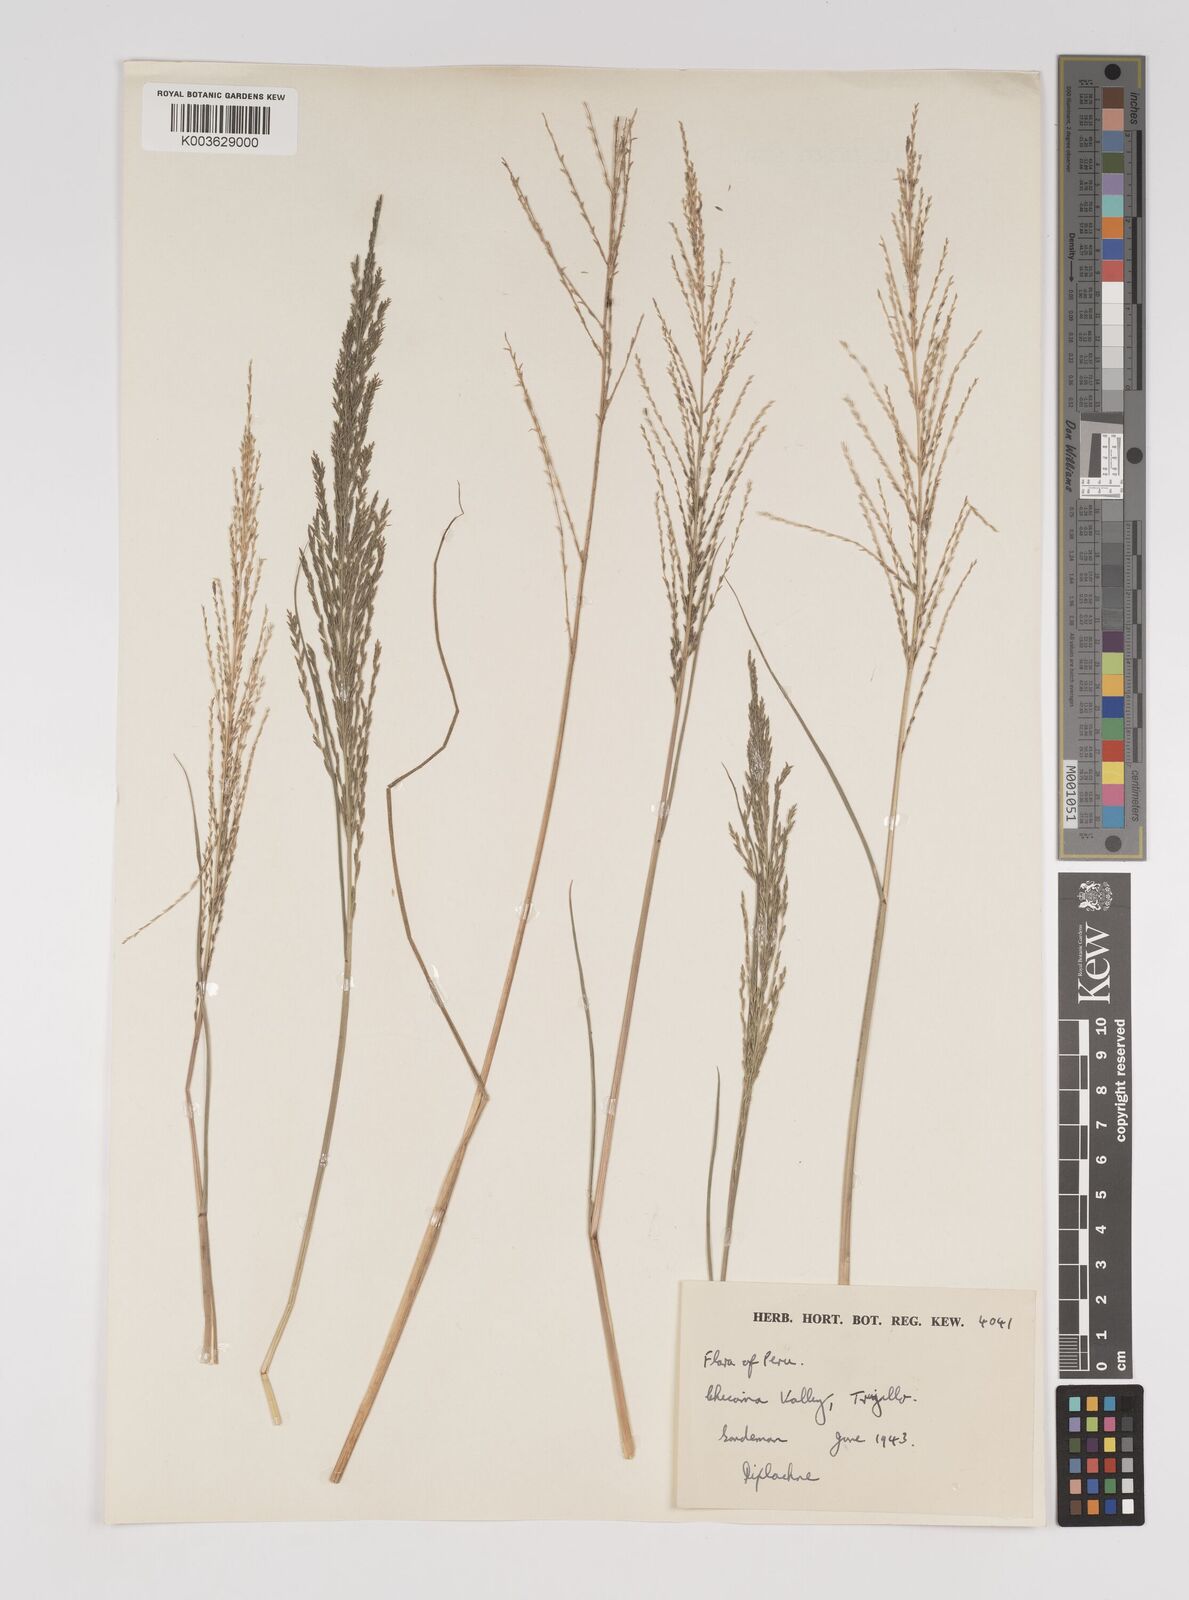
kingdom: Plantae
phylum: Tracheophyta
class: Liliopsida
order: Poales
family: Poaceae
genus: Diplachne
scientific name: Diplachne fusca
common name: Brown beetle grass
